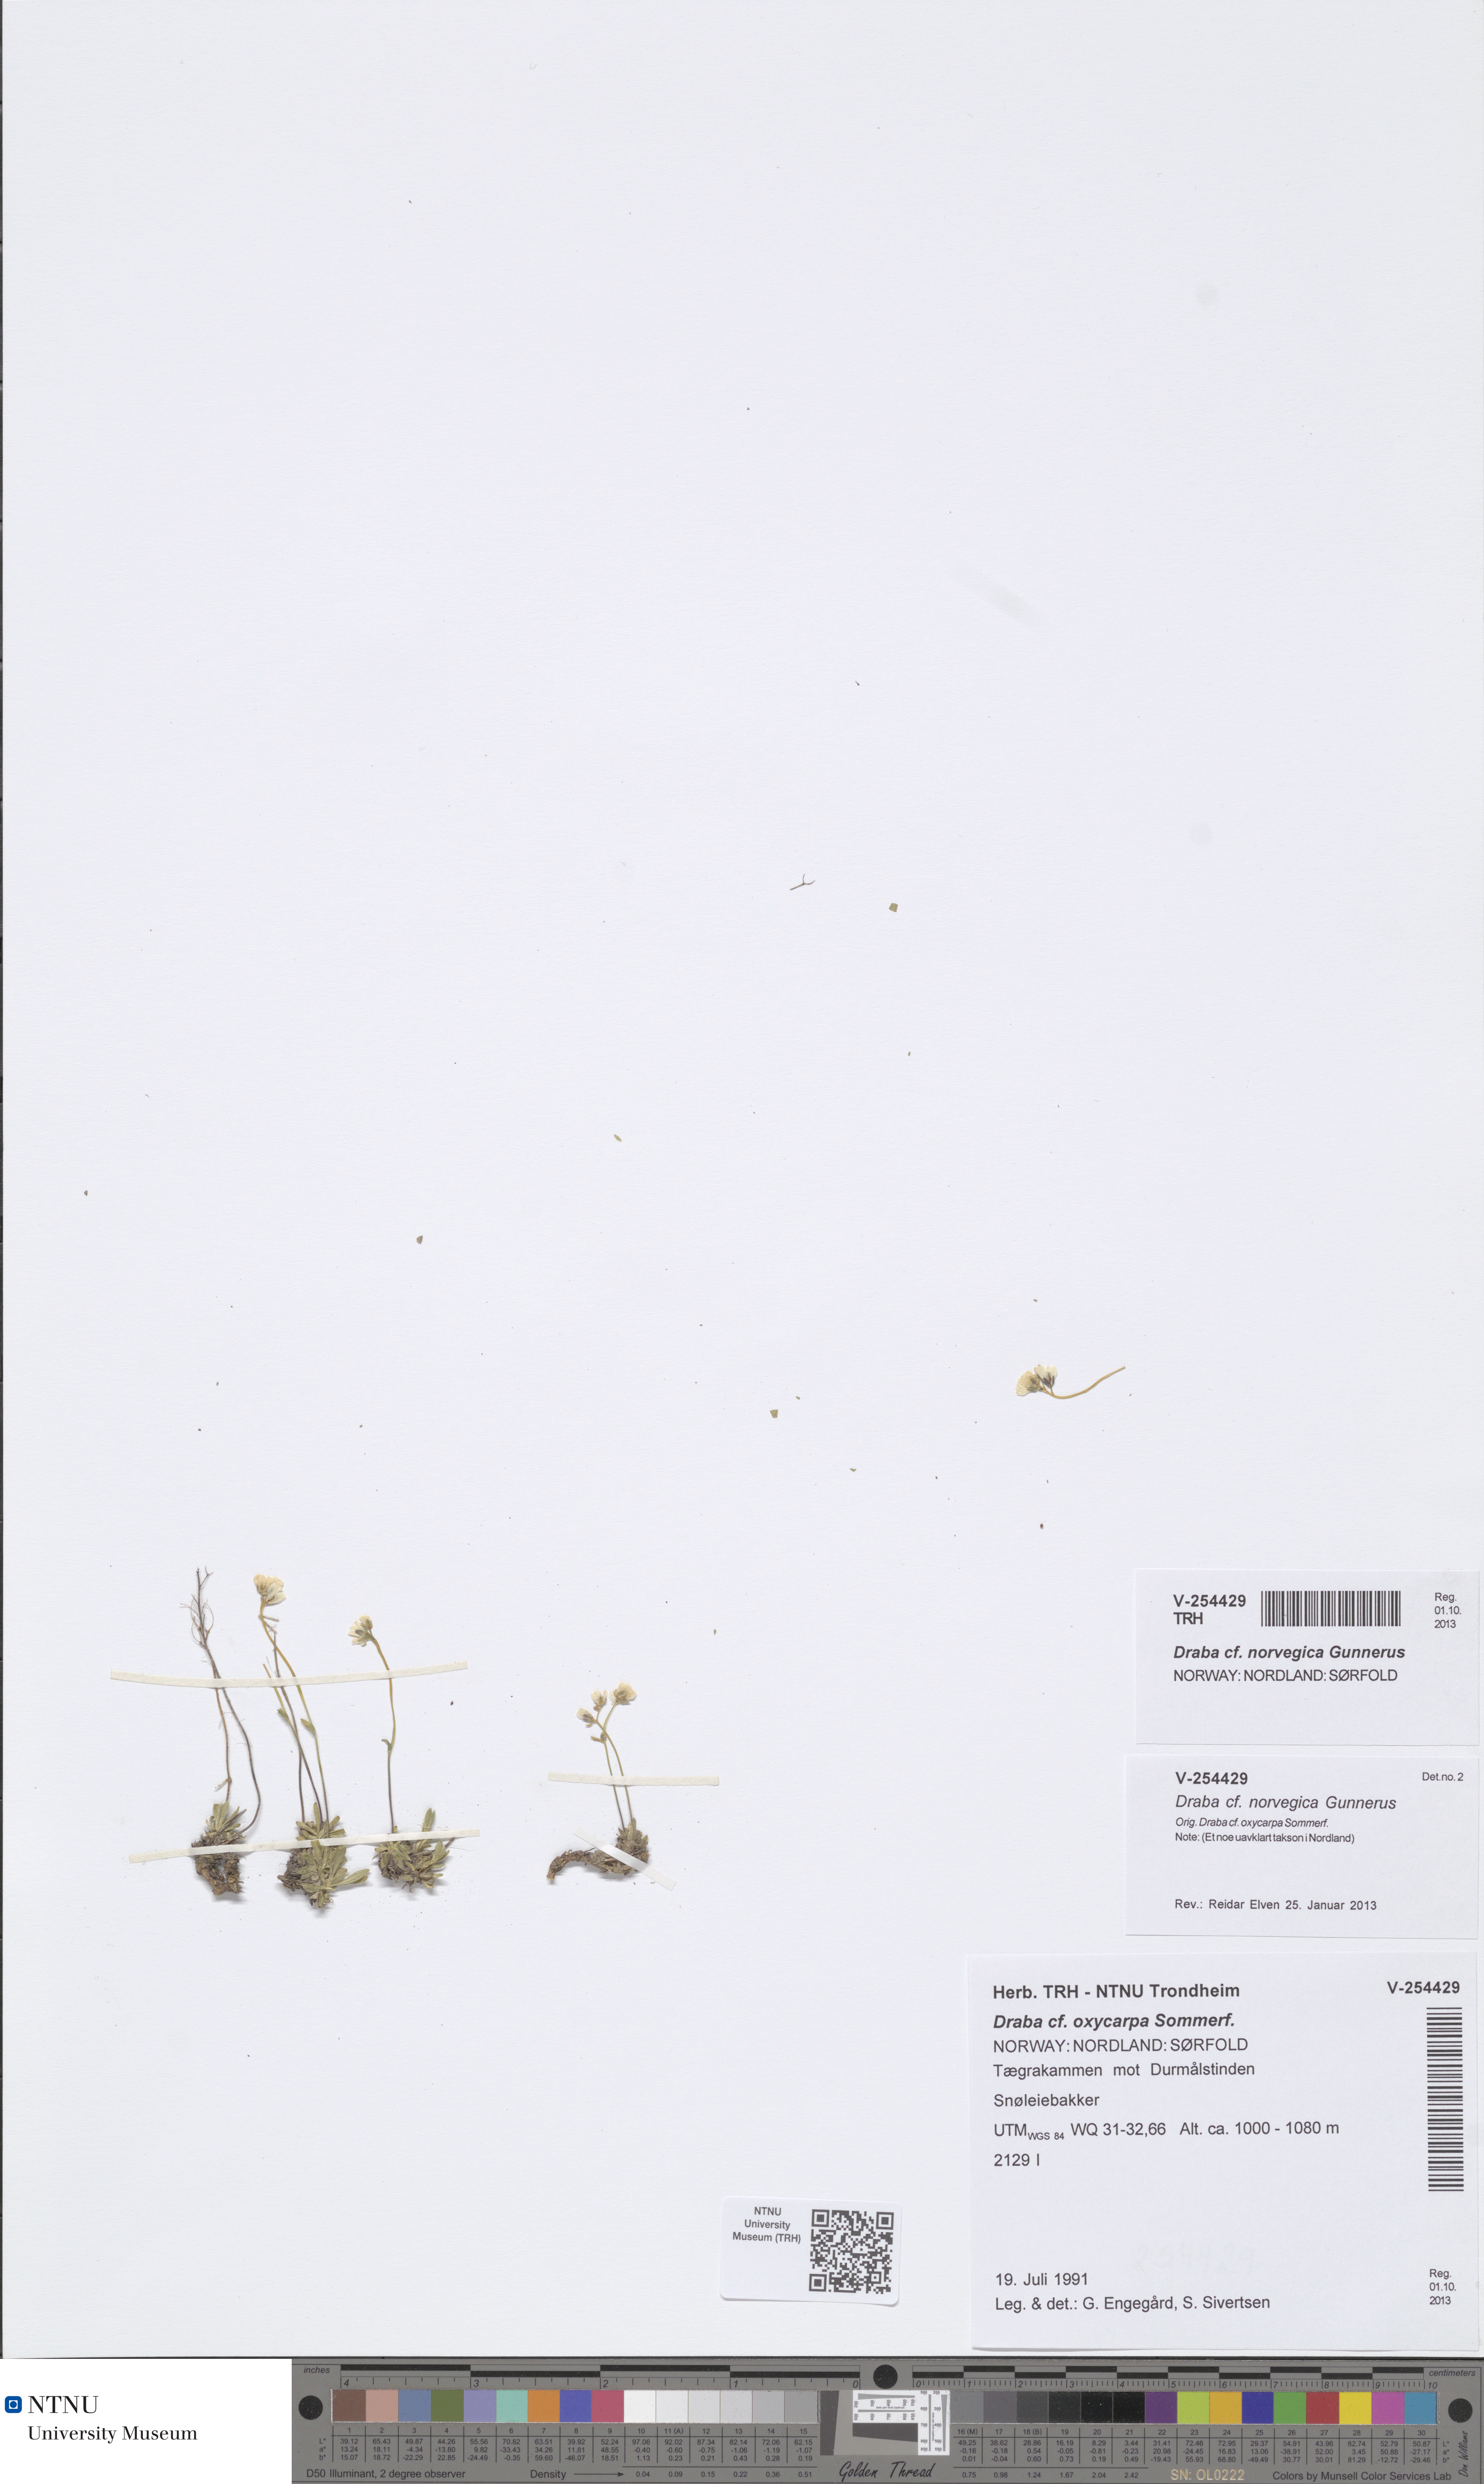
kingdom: Plantae
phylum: Tracheophyta
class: Magnoliopsida
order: Brassicales
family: Brassicaceae
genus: Draba
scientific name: Draba norvegica
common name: Rock whitlowgrass
